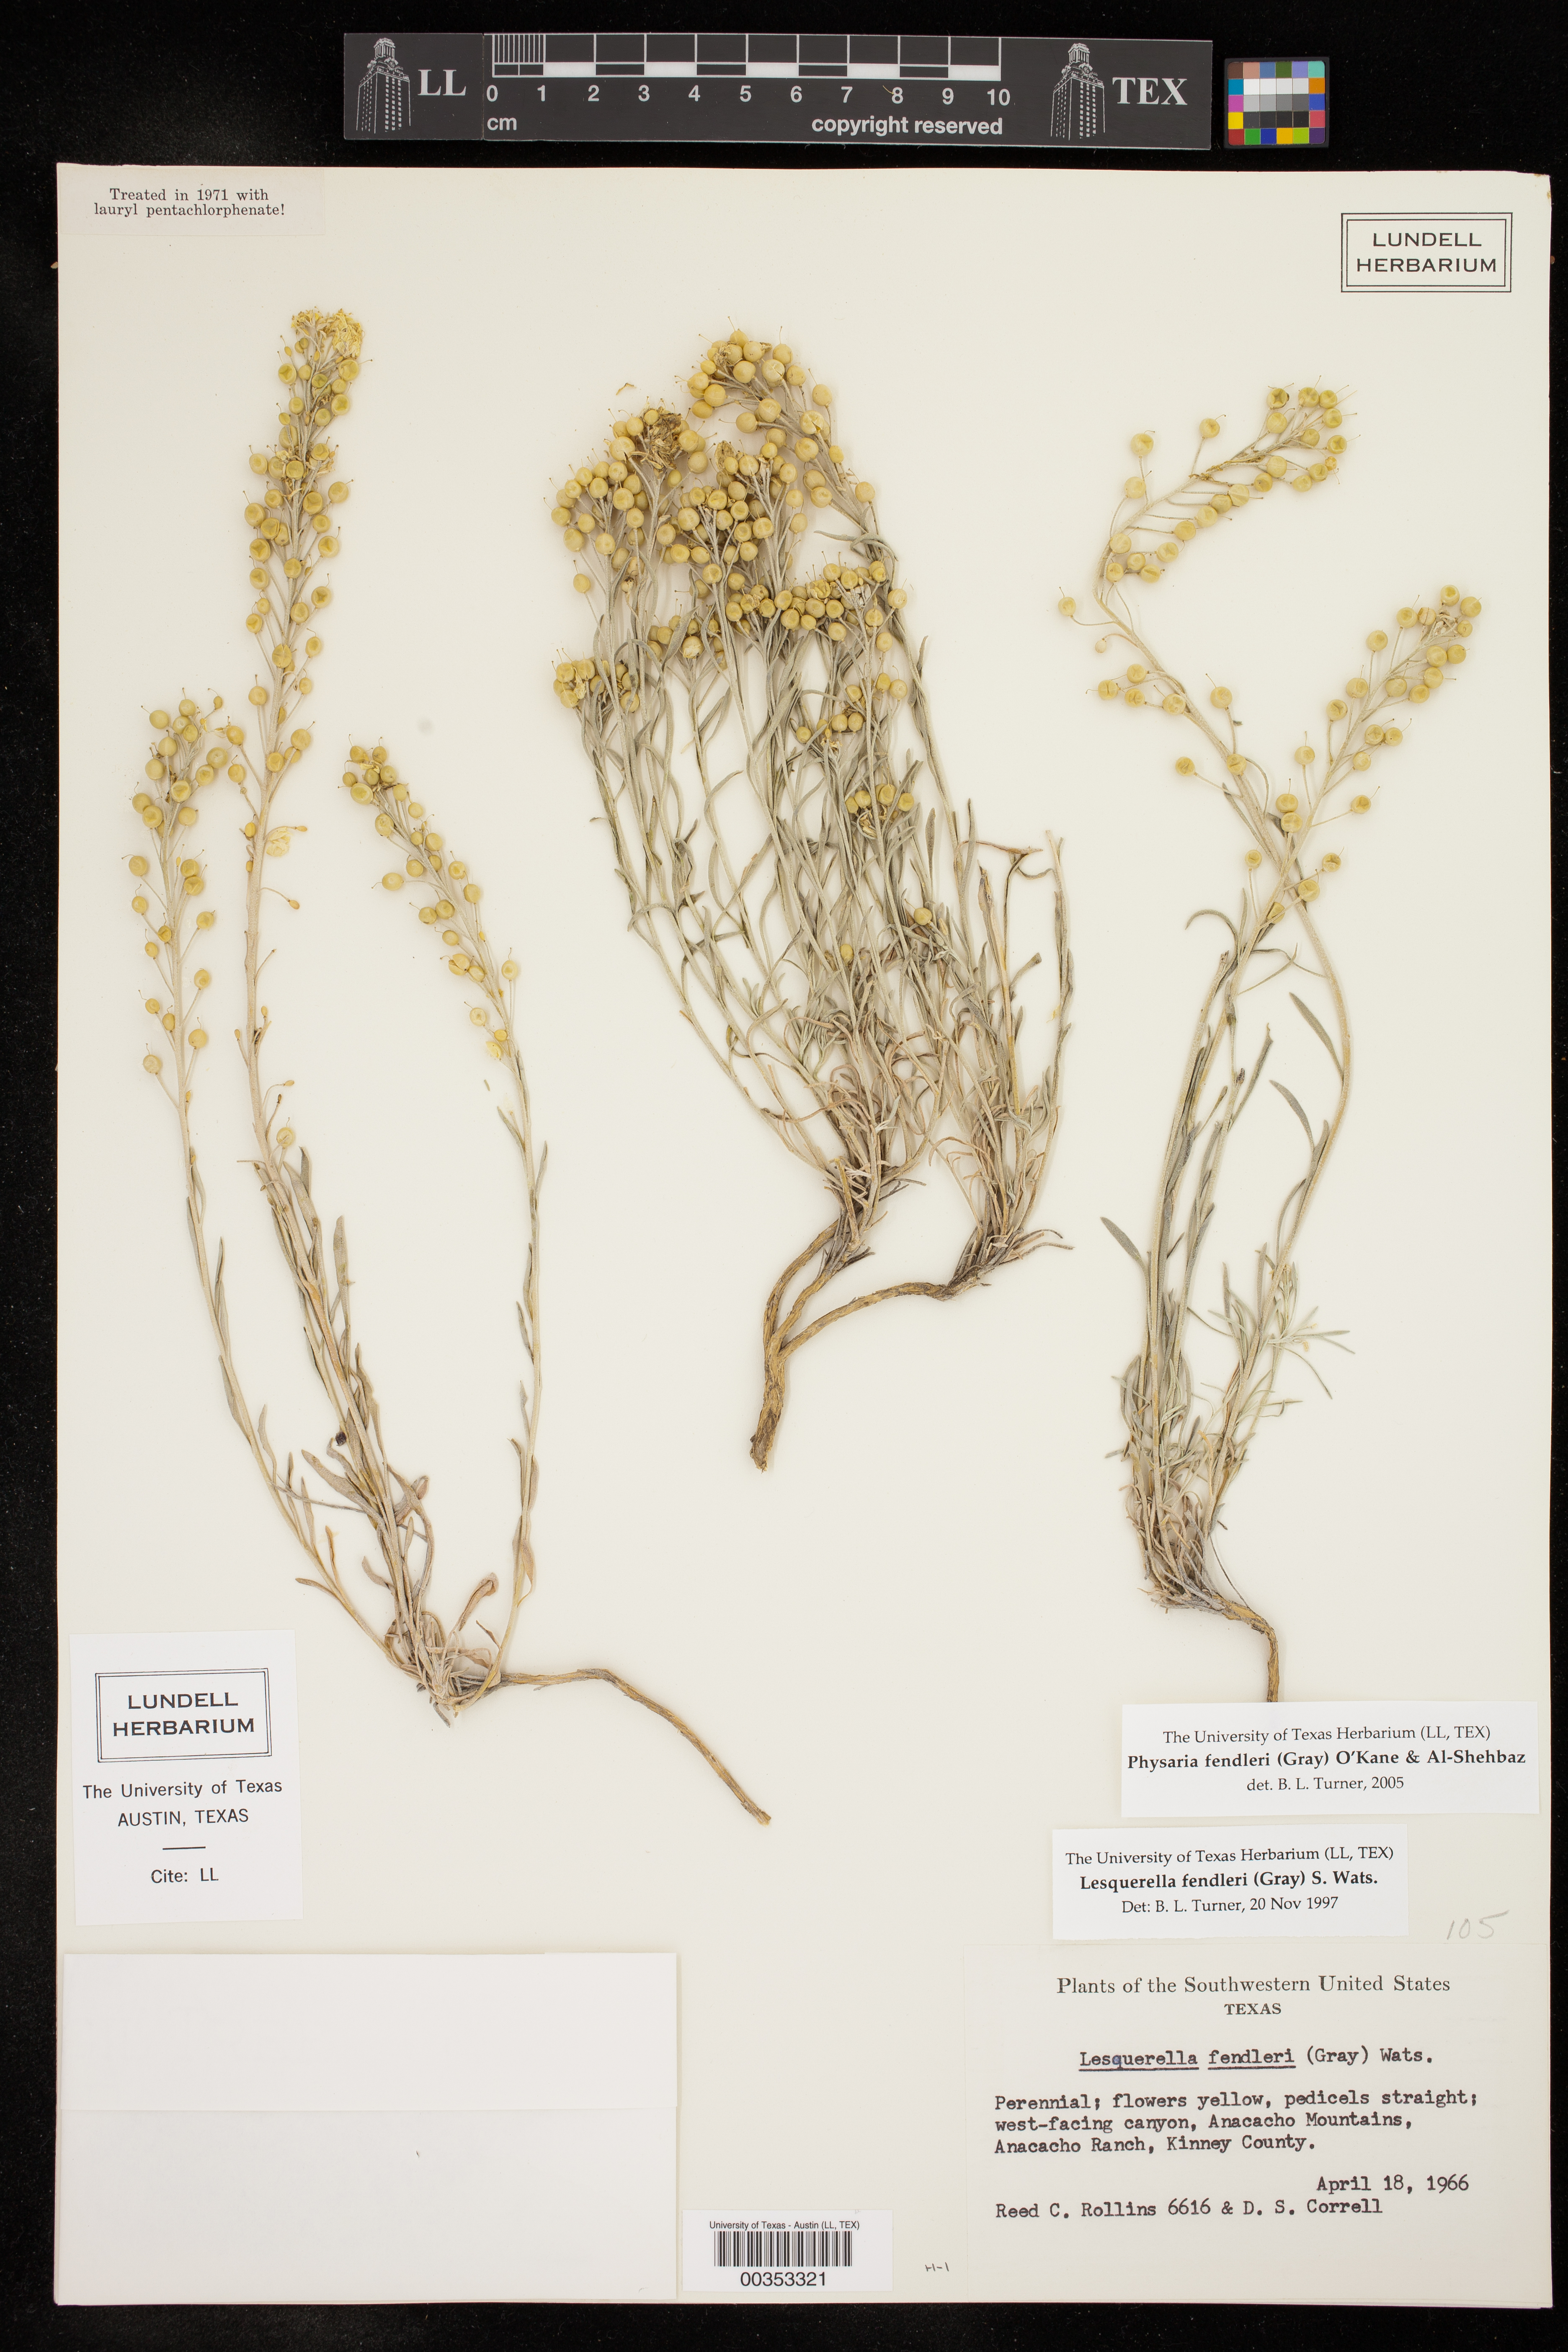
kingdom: Plantae
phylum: Tracheophyta
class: Magnoliopsida
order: Brassicales
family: Brassicaceae
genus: Physaria
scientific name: Physaria fendleri
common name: Fendler's bladderpod
